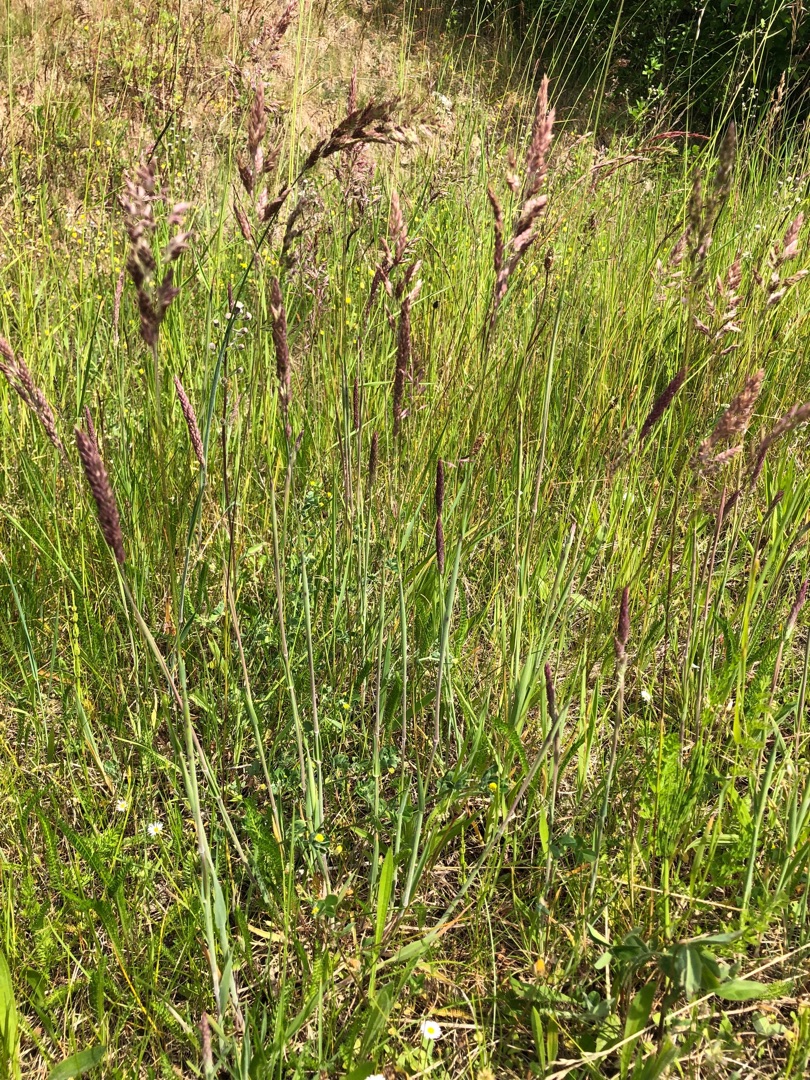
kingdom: Plantae
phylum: Tracheophyta
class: Liliopsida
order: Poales
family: Poaceae
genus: Holcus
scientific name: Holcus lanatus
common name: Fløjlsgræs
